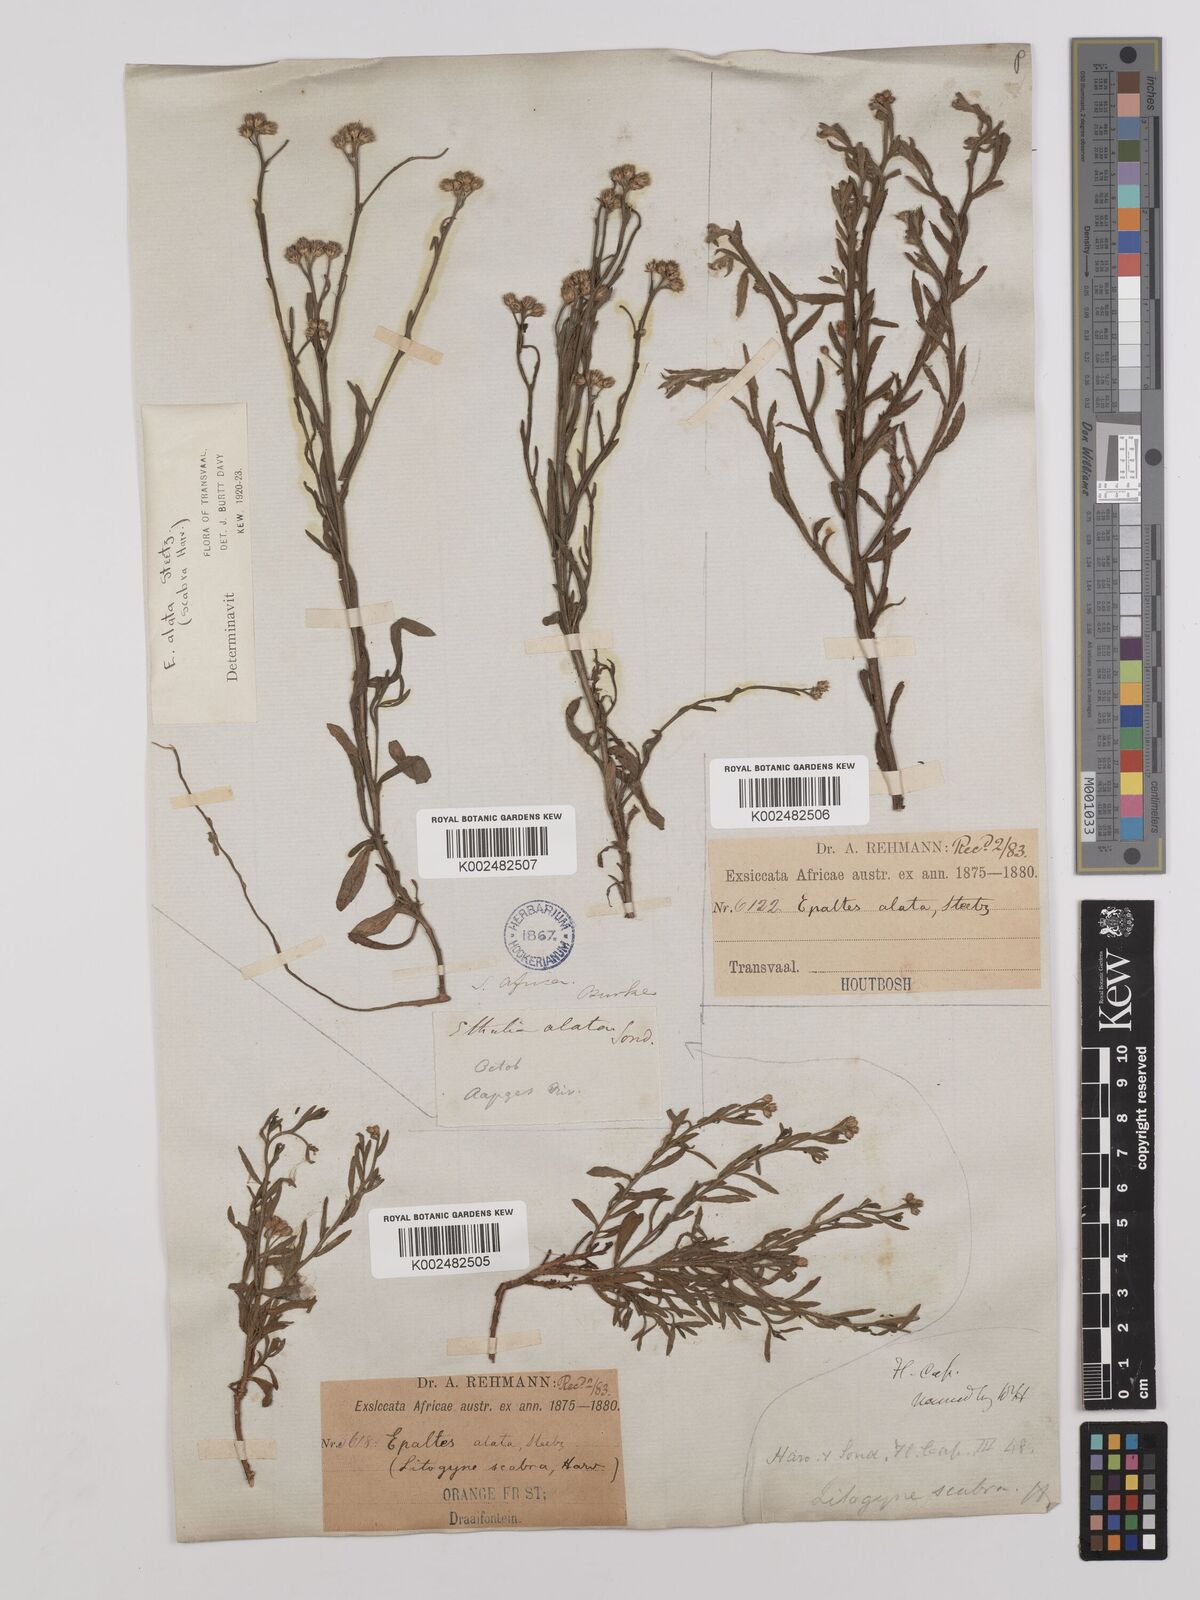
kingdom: Plantae
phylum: Tracheophyta
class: Magnoliopsida
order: Asterales
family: Asteraceae
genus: Litogyne
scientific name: Litogyne gariepina
